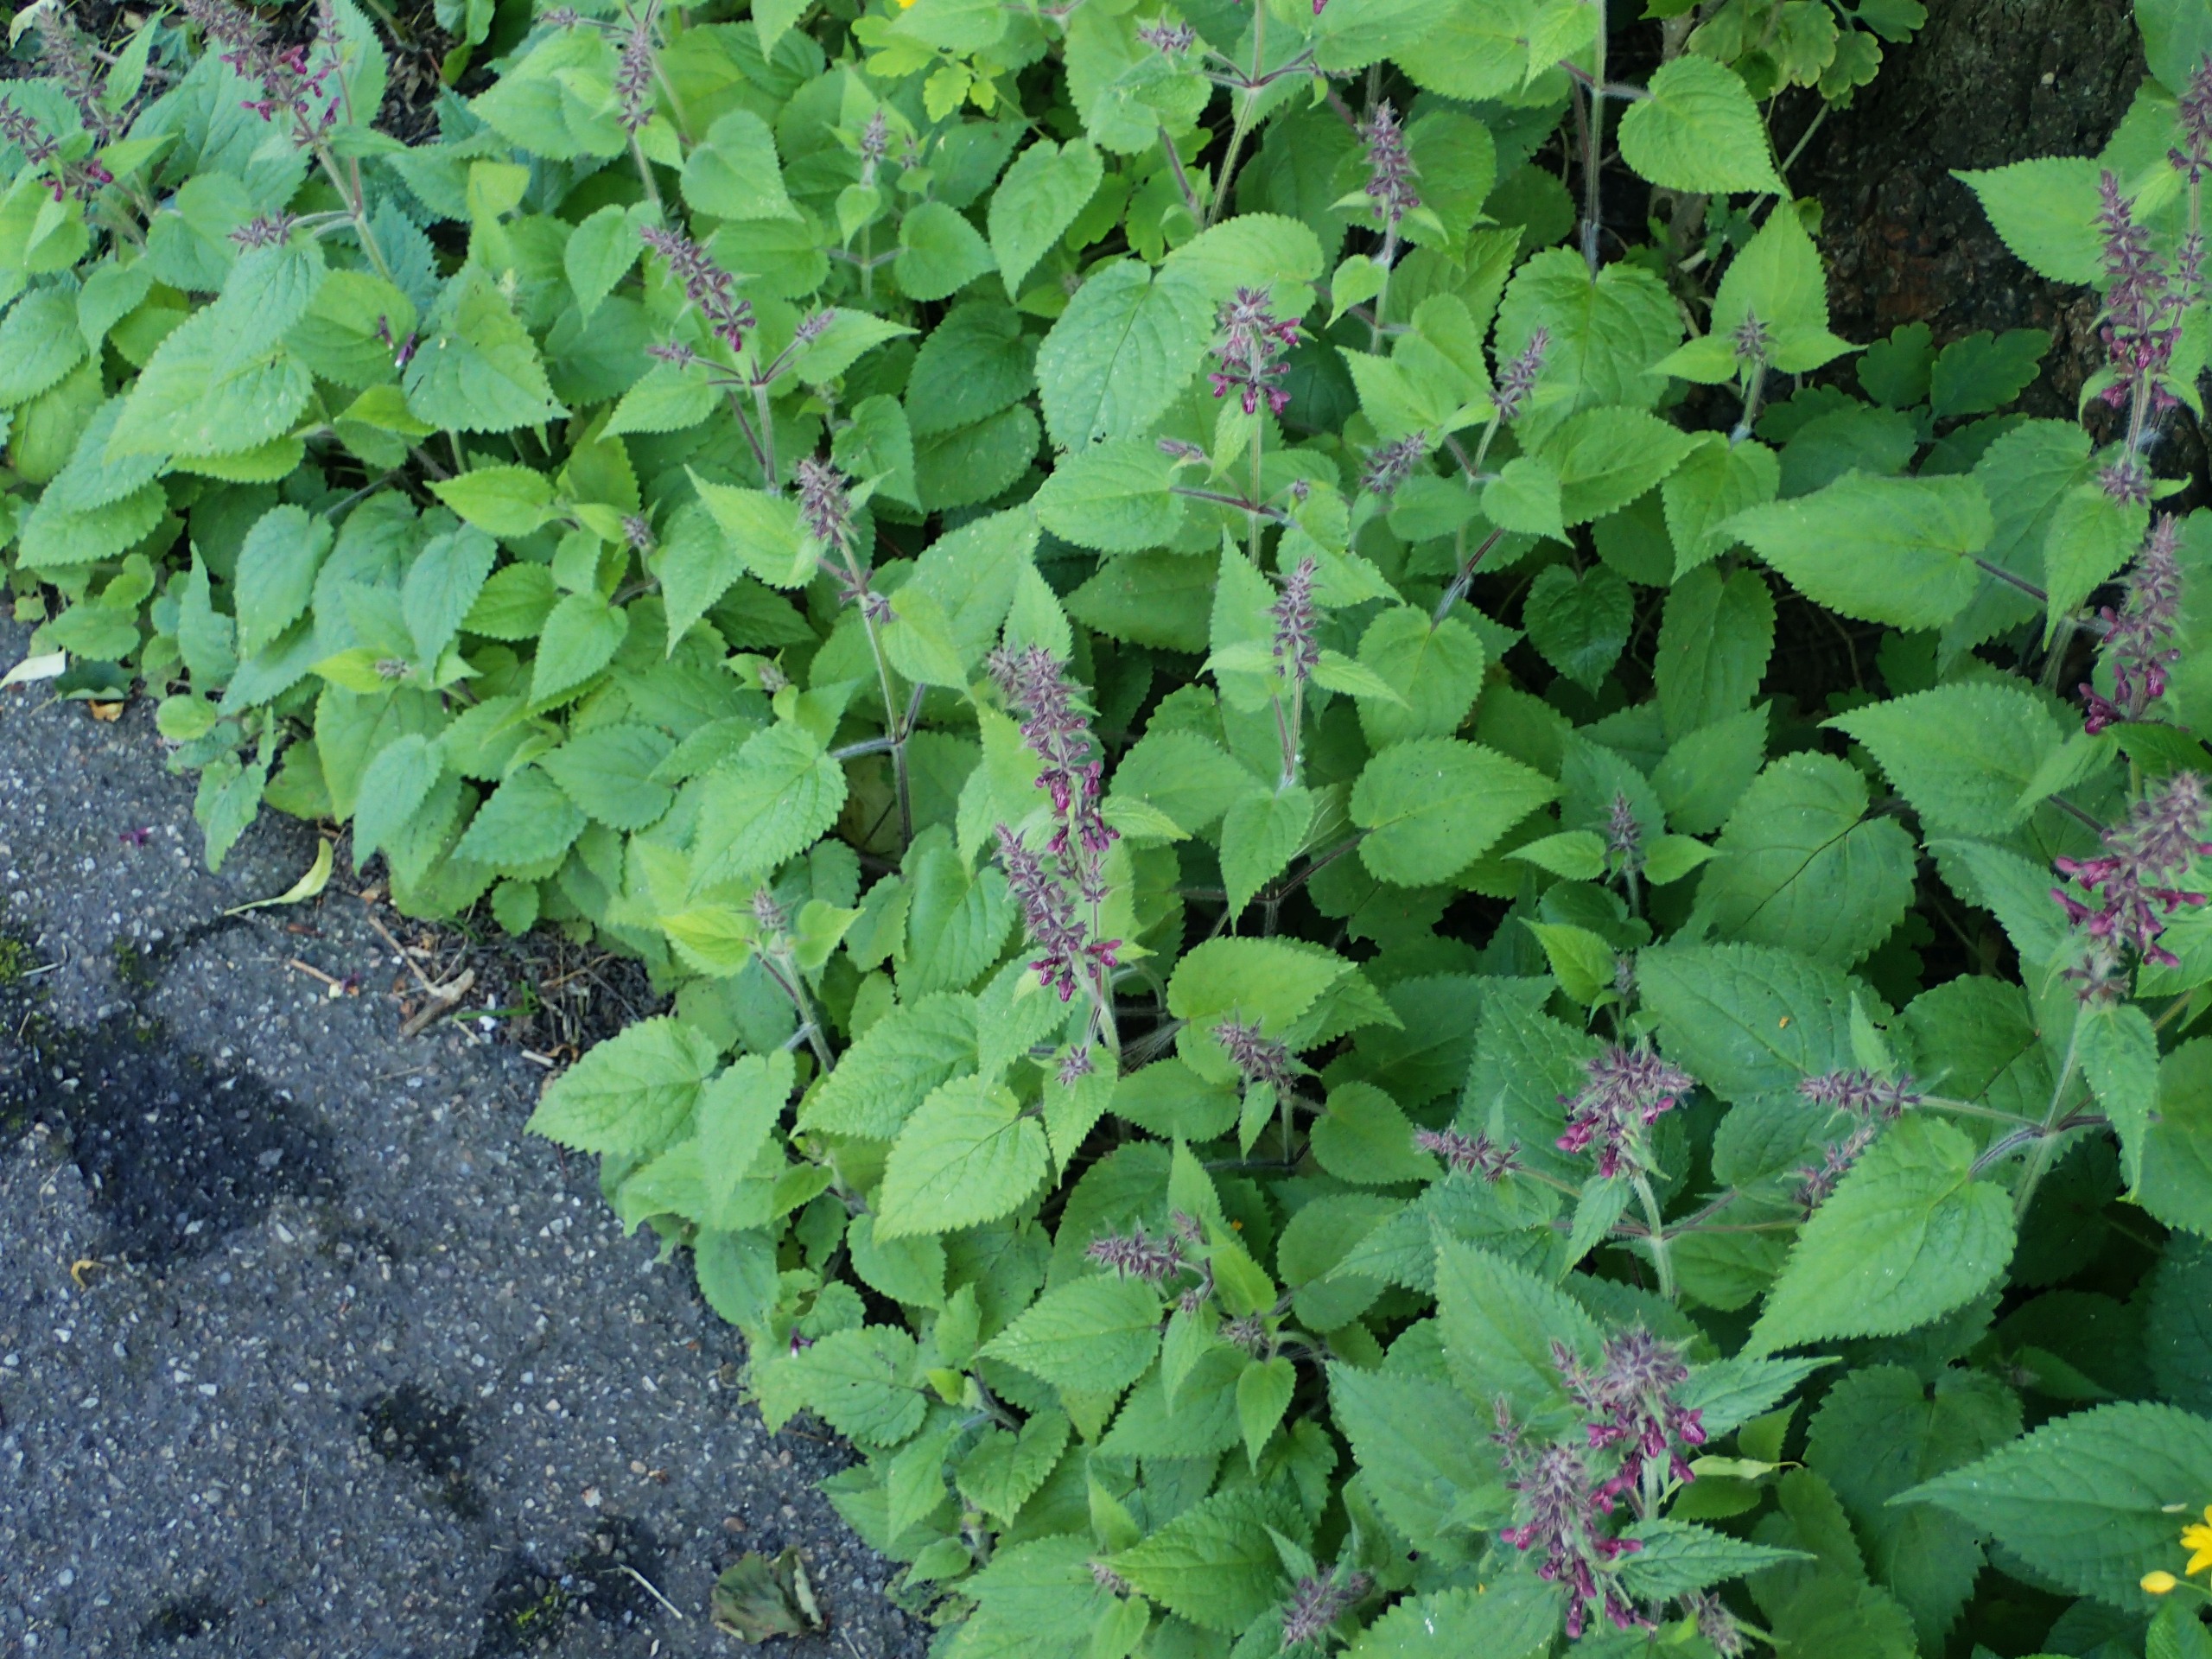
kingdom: Plantae
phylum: Tracheophyta
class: Magnoliopsida
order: Lamiales
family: Lamiaceae
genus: Stachys
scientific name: Stachys sylvatica
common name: Skov-galtetand
